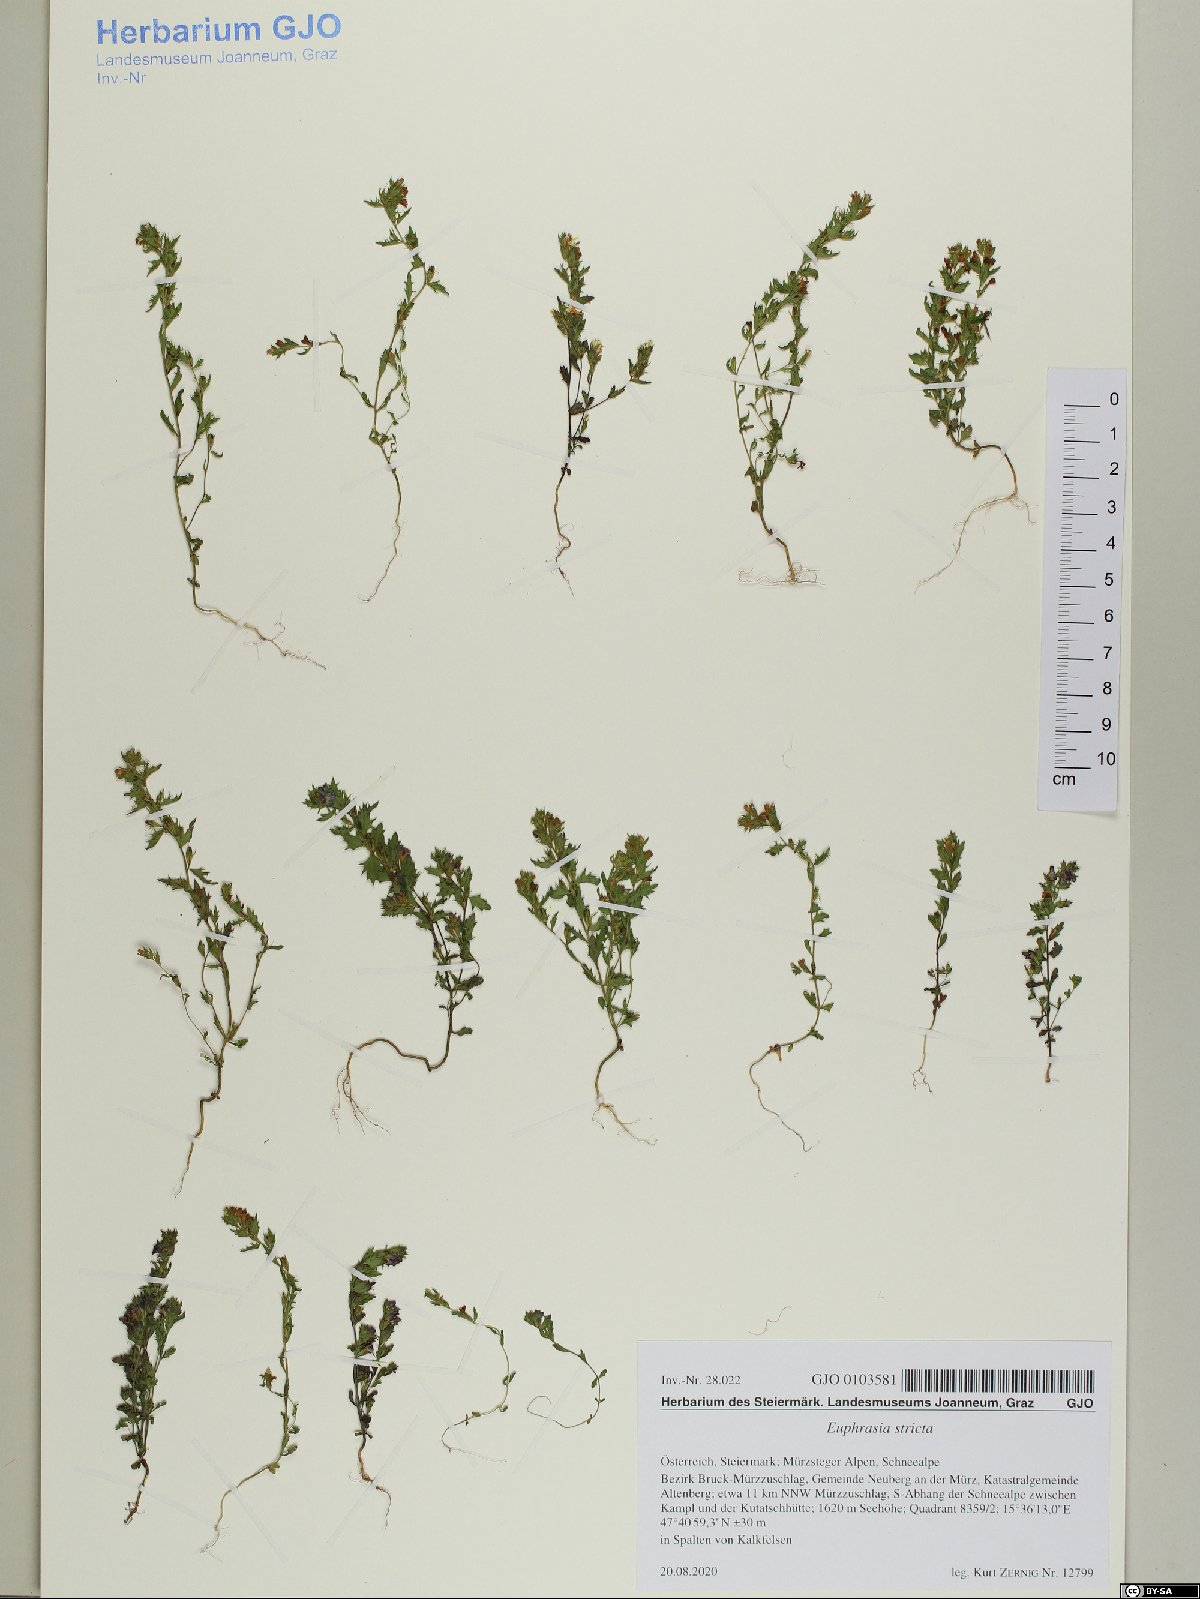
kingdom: Plantae
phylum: Tracheophyta
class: Magnoliopsida
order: Lamiales
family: Orobanchaceae
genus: Euphrasia
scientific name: Euphrasia stricta
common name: Drug eyebright
